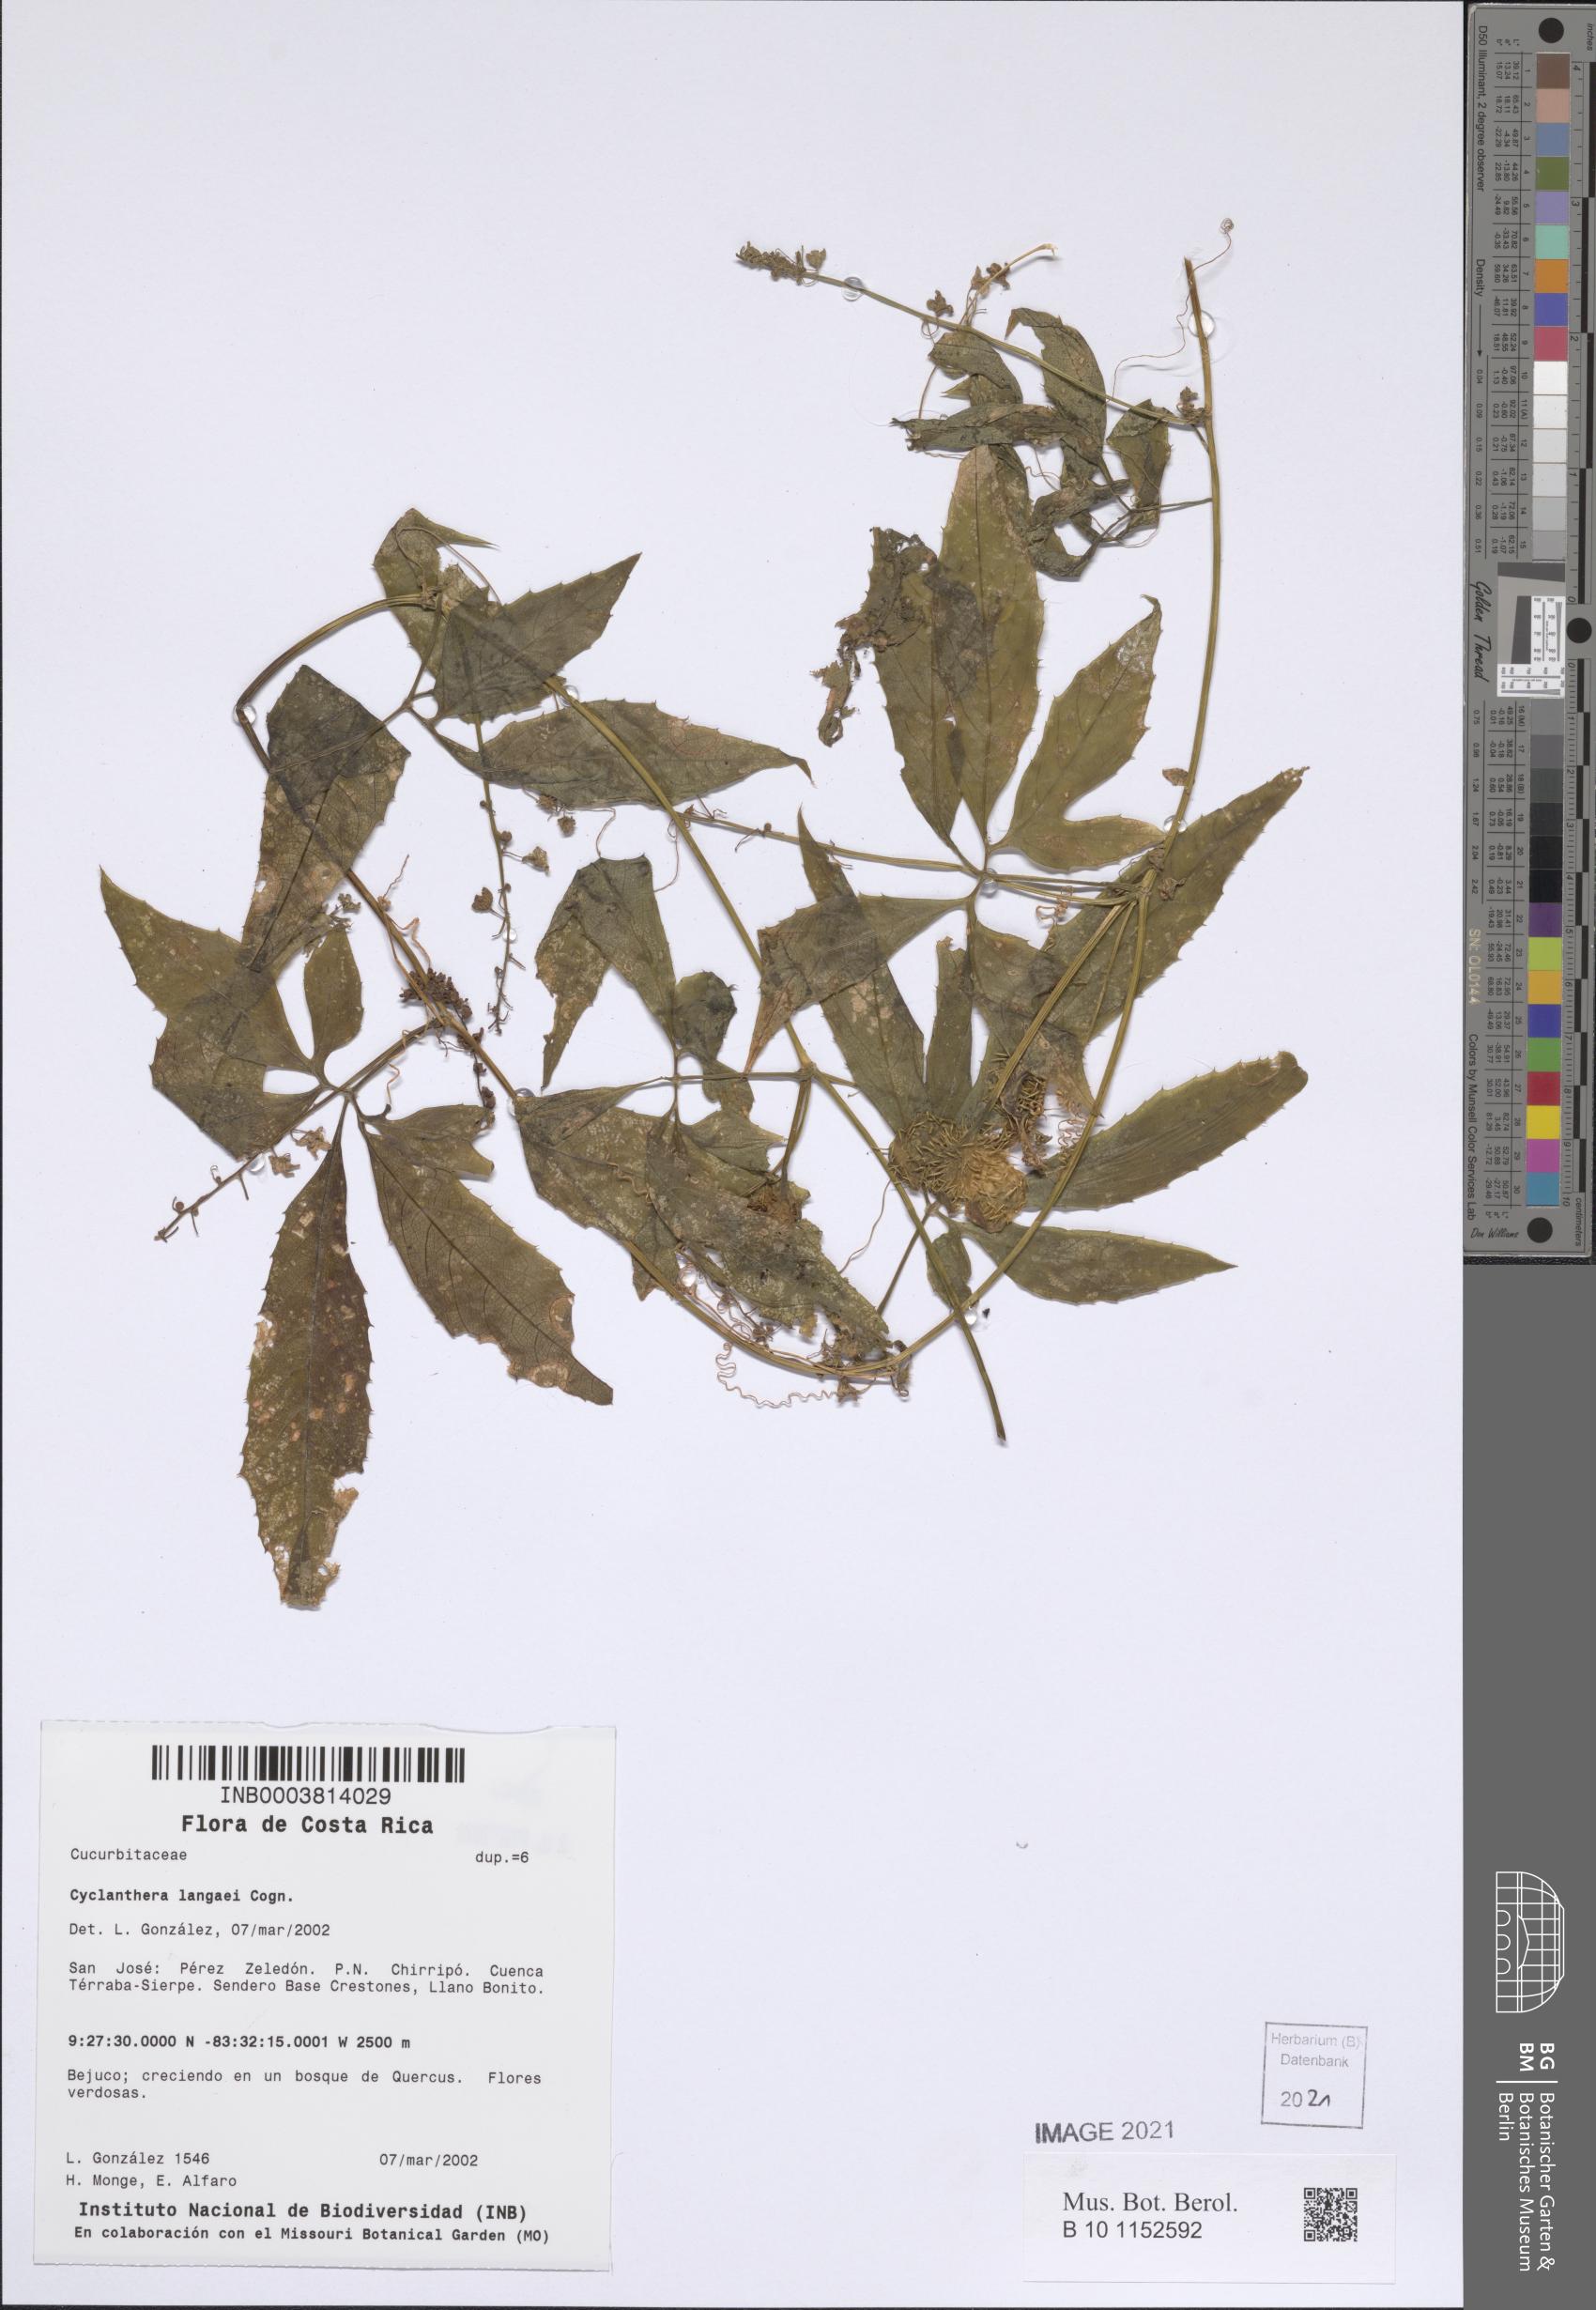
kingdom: Plantae
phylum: Tracheophyta
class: Magnoliopsida
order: Cucurbitales
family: Cucurbitaceae
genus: Cyclanthera
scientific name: Cyclanthera langaei
